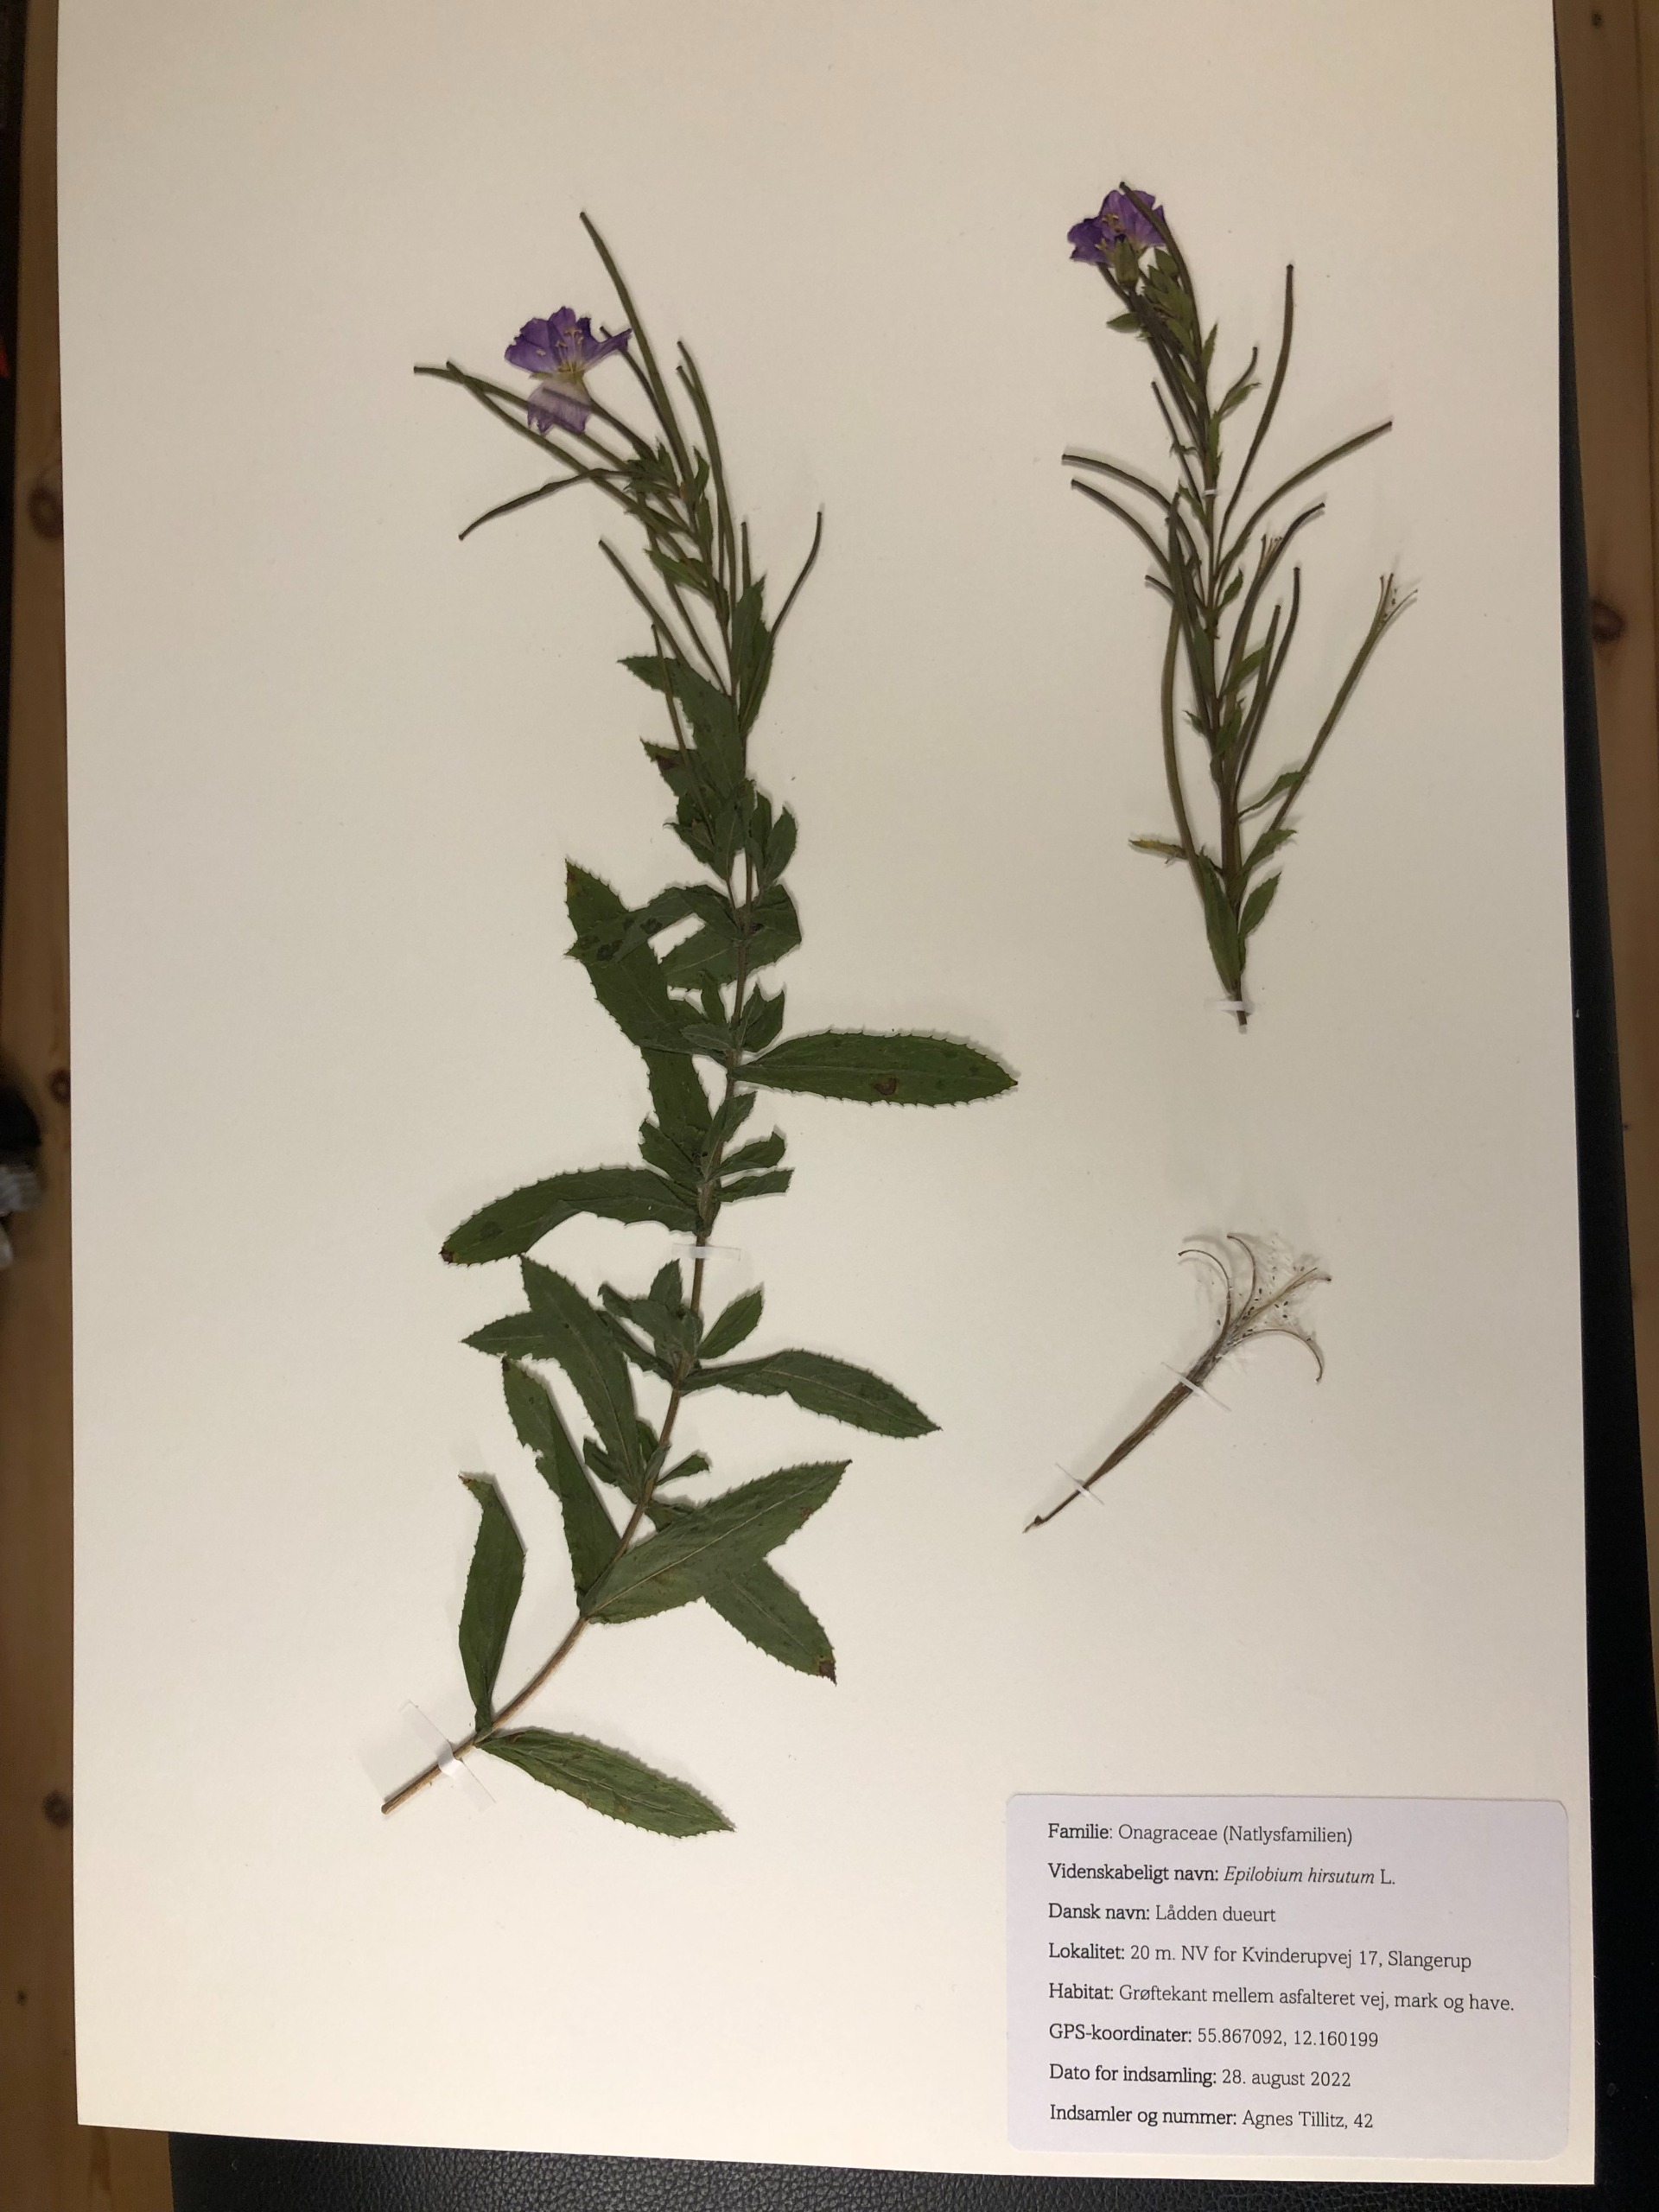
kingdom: Plantae
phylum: Tracheophyta
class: Magnoliopsida
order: Myrtales
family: Onagraceae
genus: Epilobium
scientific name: Epilobium hirsutum
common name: Lådden dueurt
